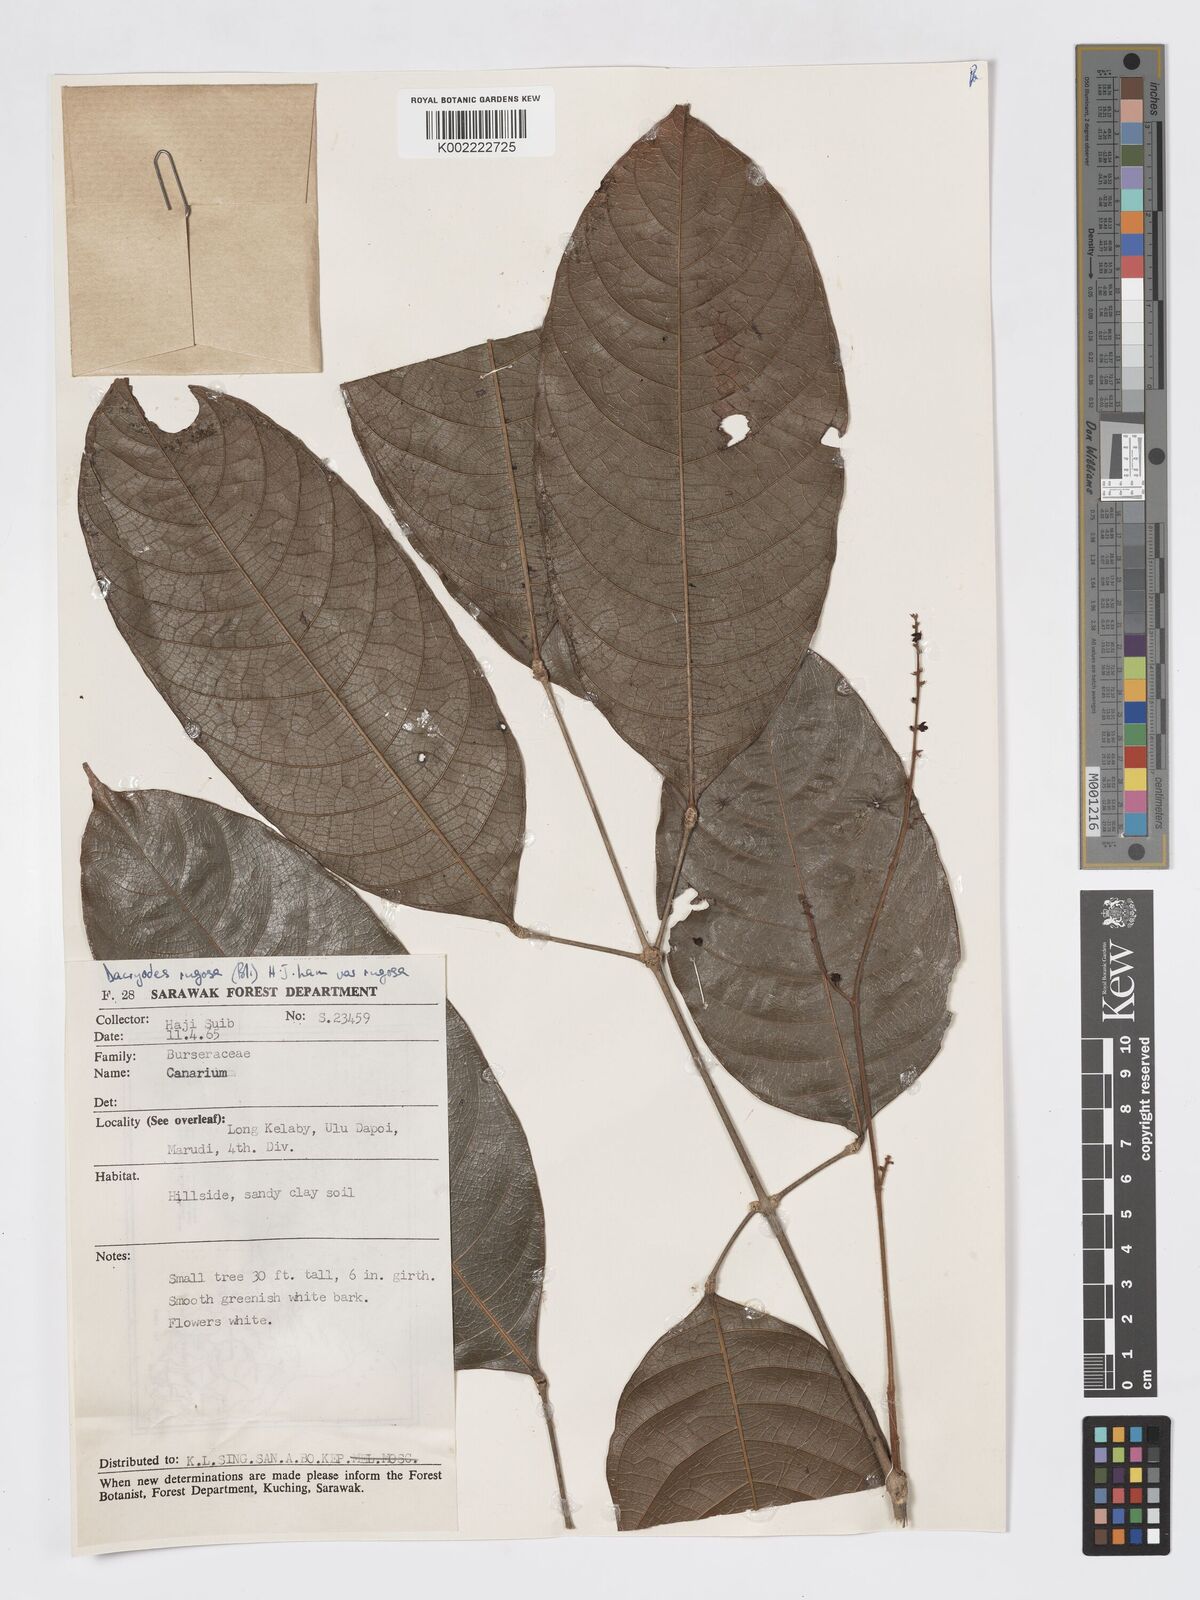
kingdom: Plantae
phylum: Tracheophyta
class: Magnoliopsida
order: Sapindales
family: Burseraceae
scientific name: Burseraceae
